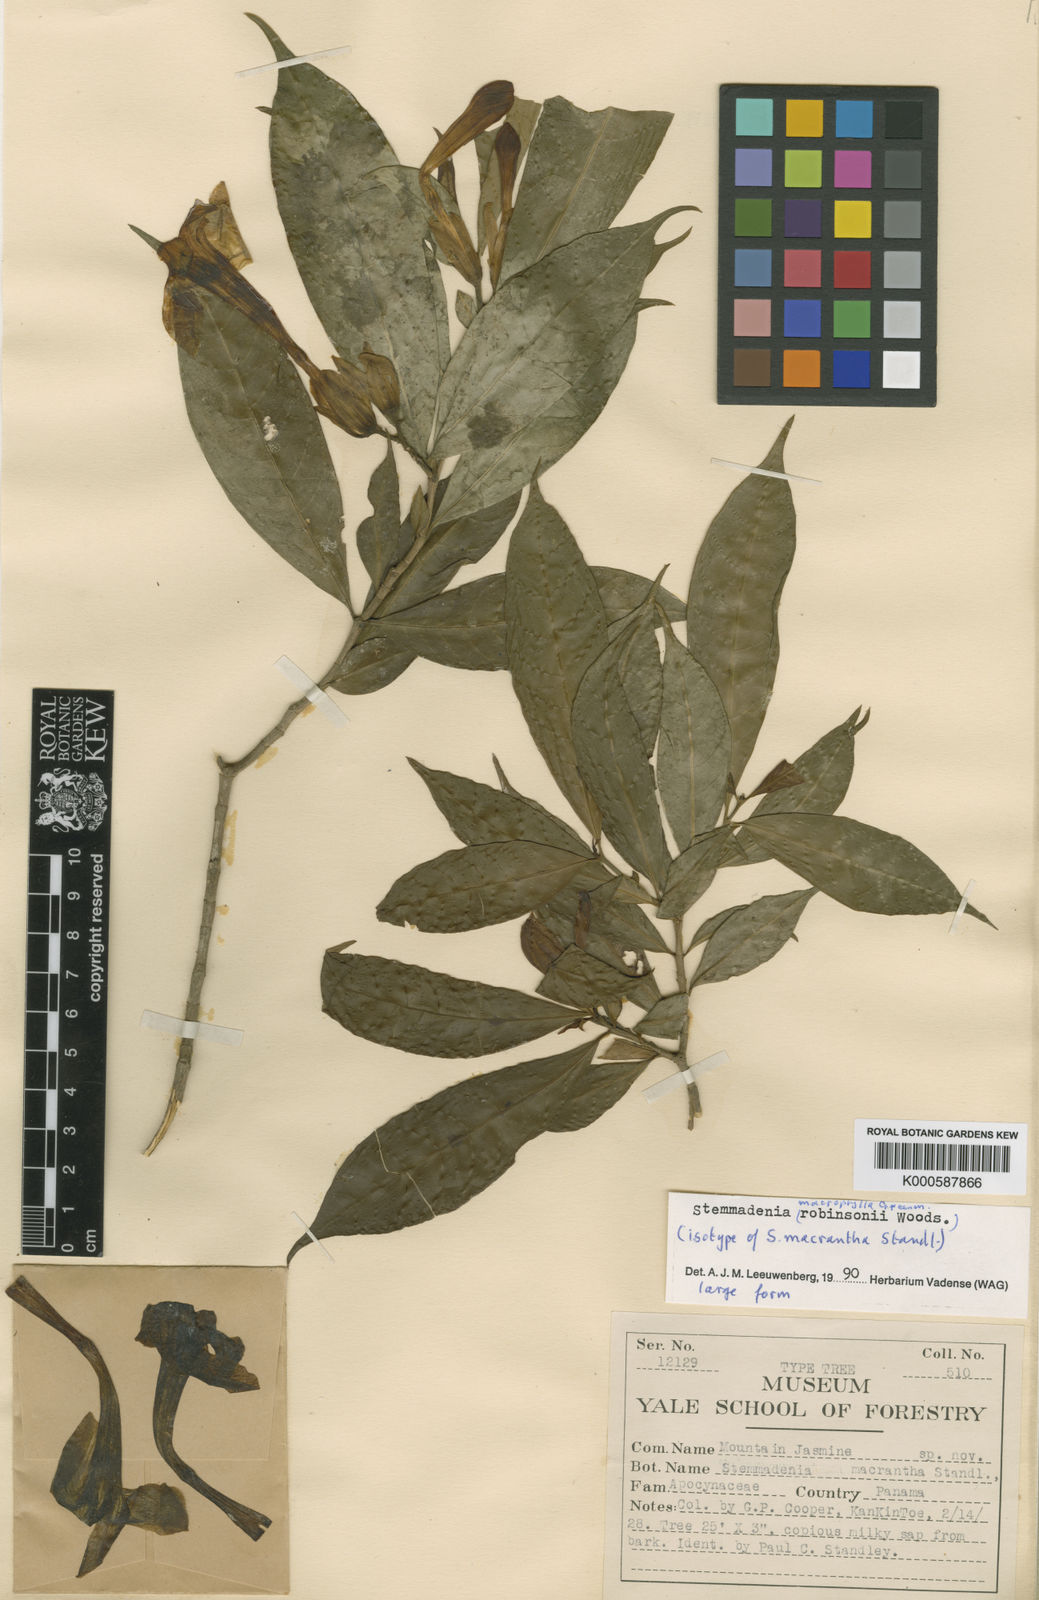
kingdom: Plantae
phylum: Tracheophyta
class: Magnoliopsida
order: Gentianales
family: Apocynaceae
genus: Tabernaemontana
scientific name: Tabernaemontana litoralis
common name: Milkwood
